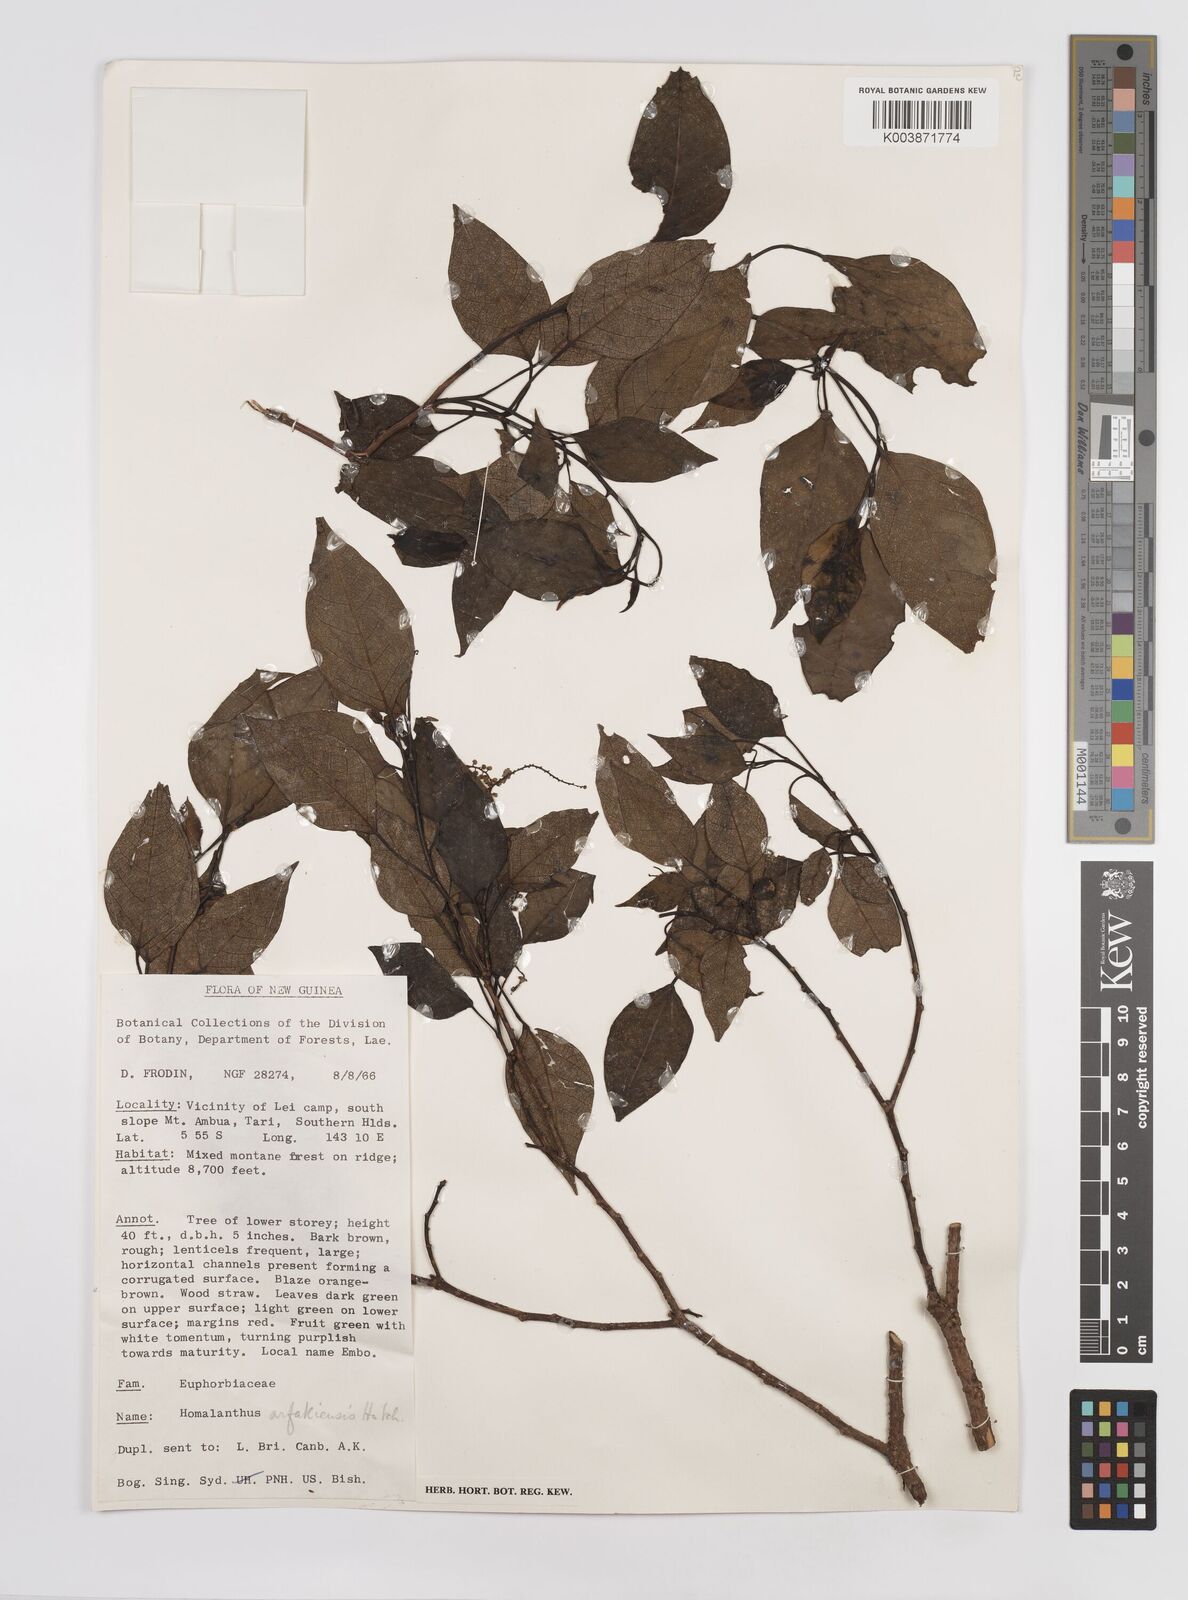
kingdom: Plantae
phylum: Tracheophyta
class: Magnoliopsida
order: Malpighiales
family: Euphorbiaceae
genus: Homalanthus
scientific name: Homalanthus arfakiensis
